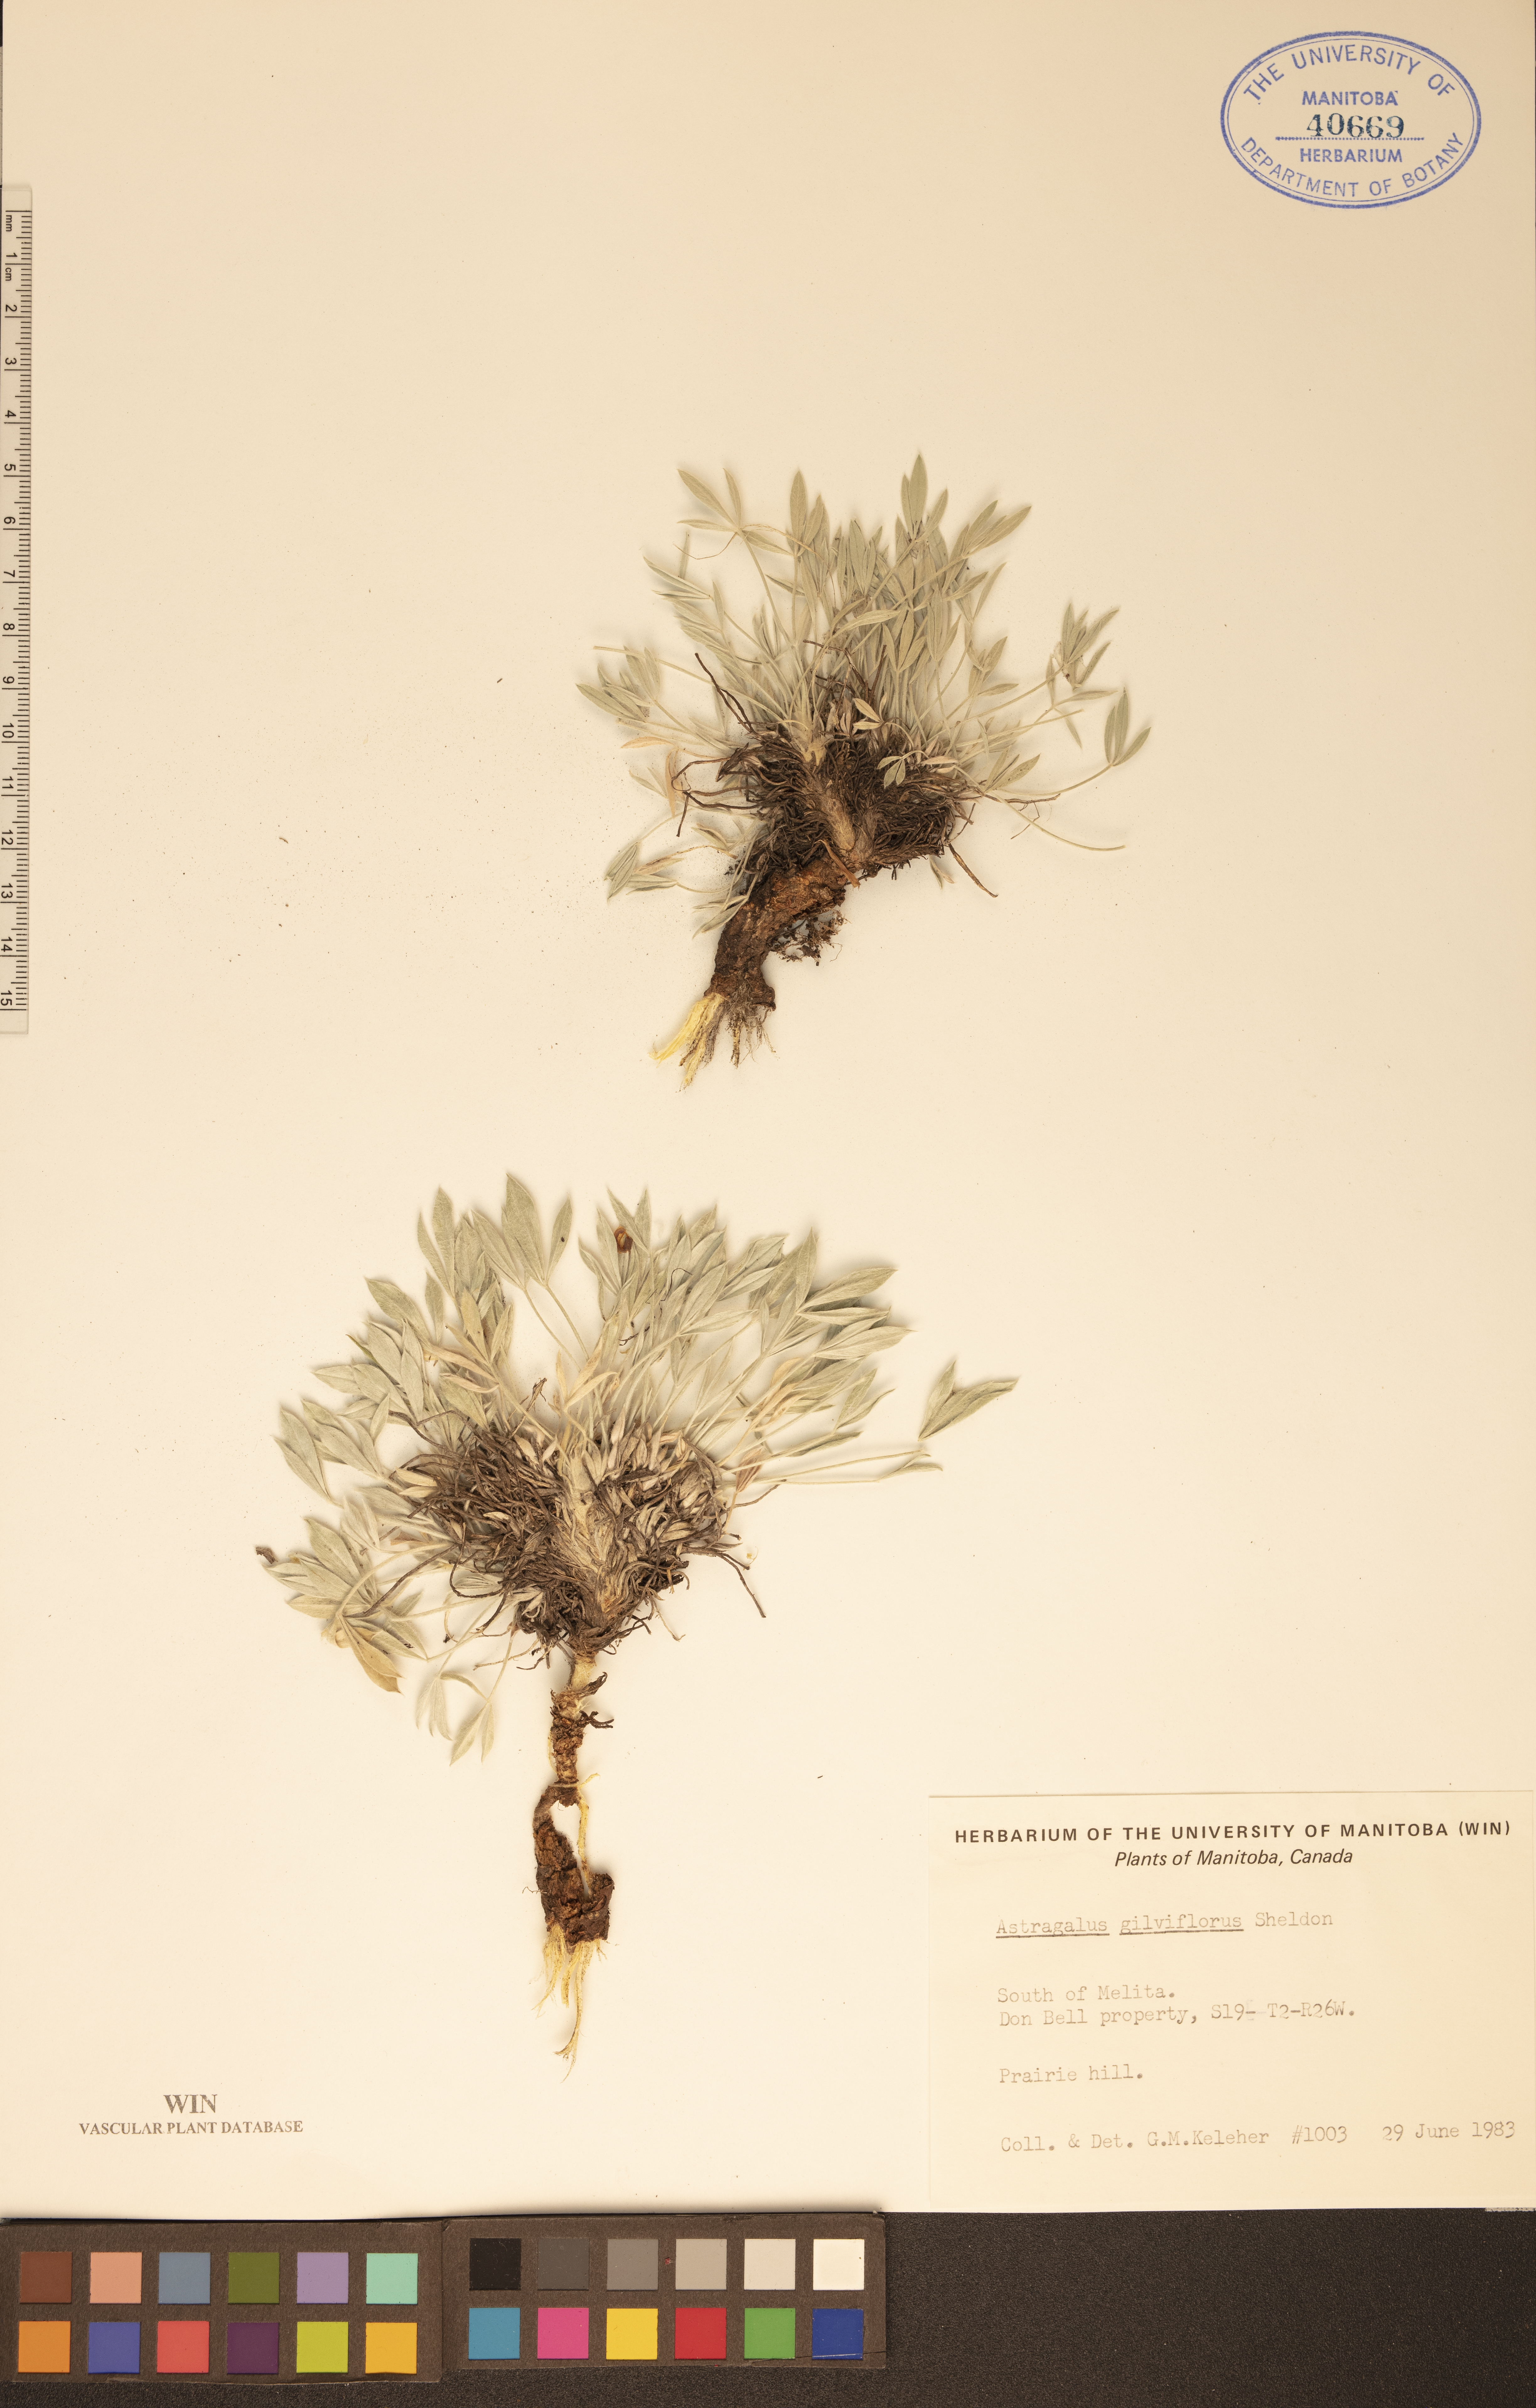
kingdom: Plantae
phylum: Tracheophyta
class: Magnoliopsida
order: Fabales
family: Fabaceae
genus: Astragalus
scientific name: Astragalus gilviflorus
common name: Cushion milk-vetch
